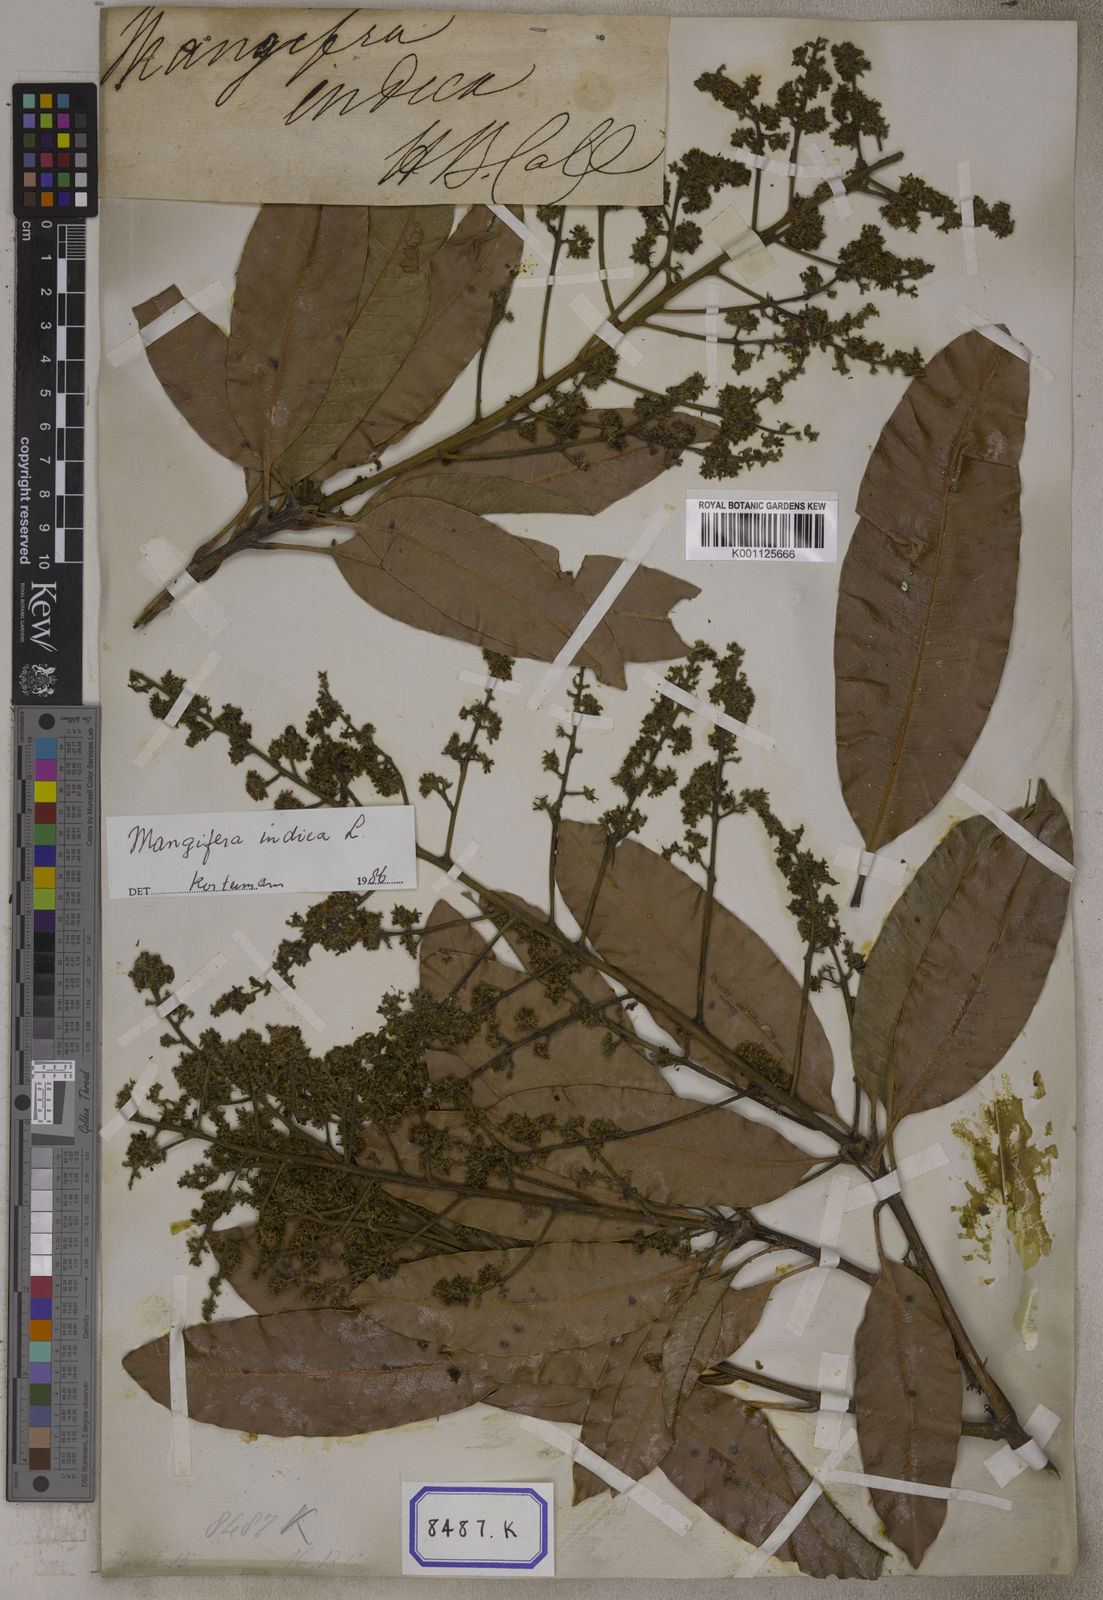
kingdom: Plantae
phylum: Tracheophyta
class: Magnoliopsida
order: Sapindales
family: Anacardiaceae
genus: Mangifera
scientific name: Mangifera indica
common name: Mango
